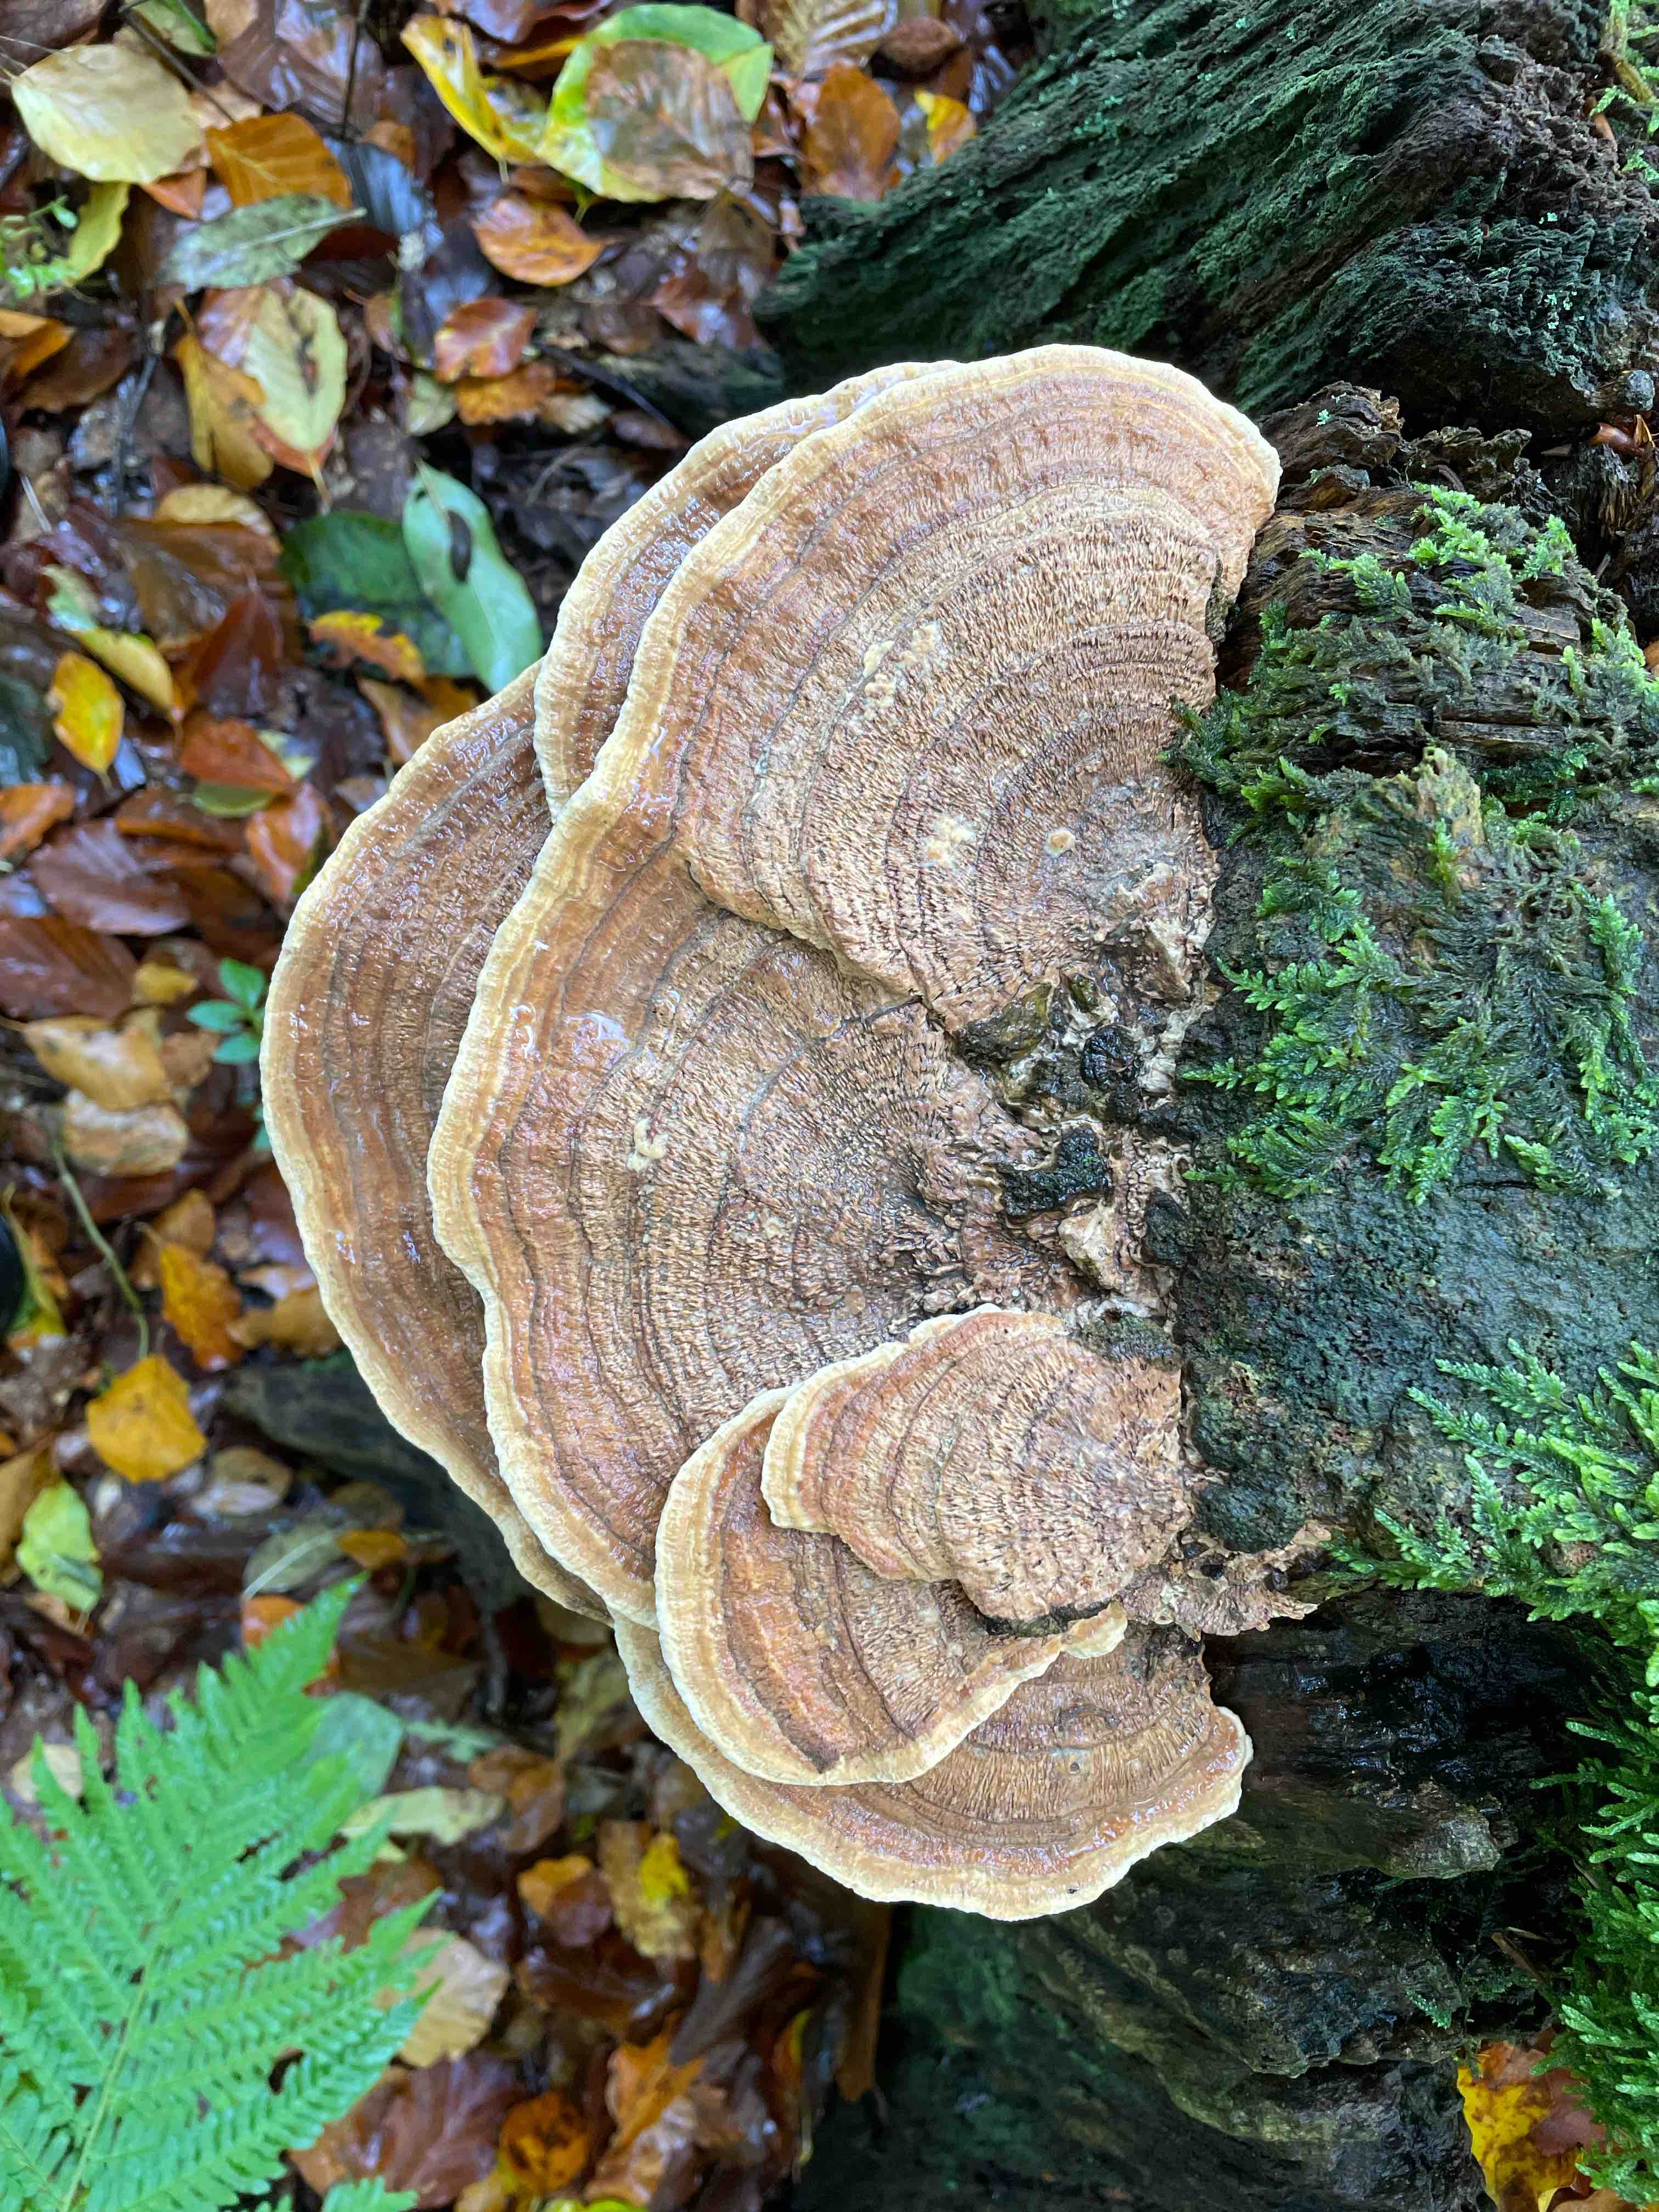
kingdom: Fungi
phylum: Basidiomycota
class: Agaricomycetes
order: Polyporales
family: Fomitopsidaceae
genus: Daedalea
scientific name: Daedalea quercina
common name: ege-labyrintsvamp
